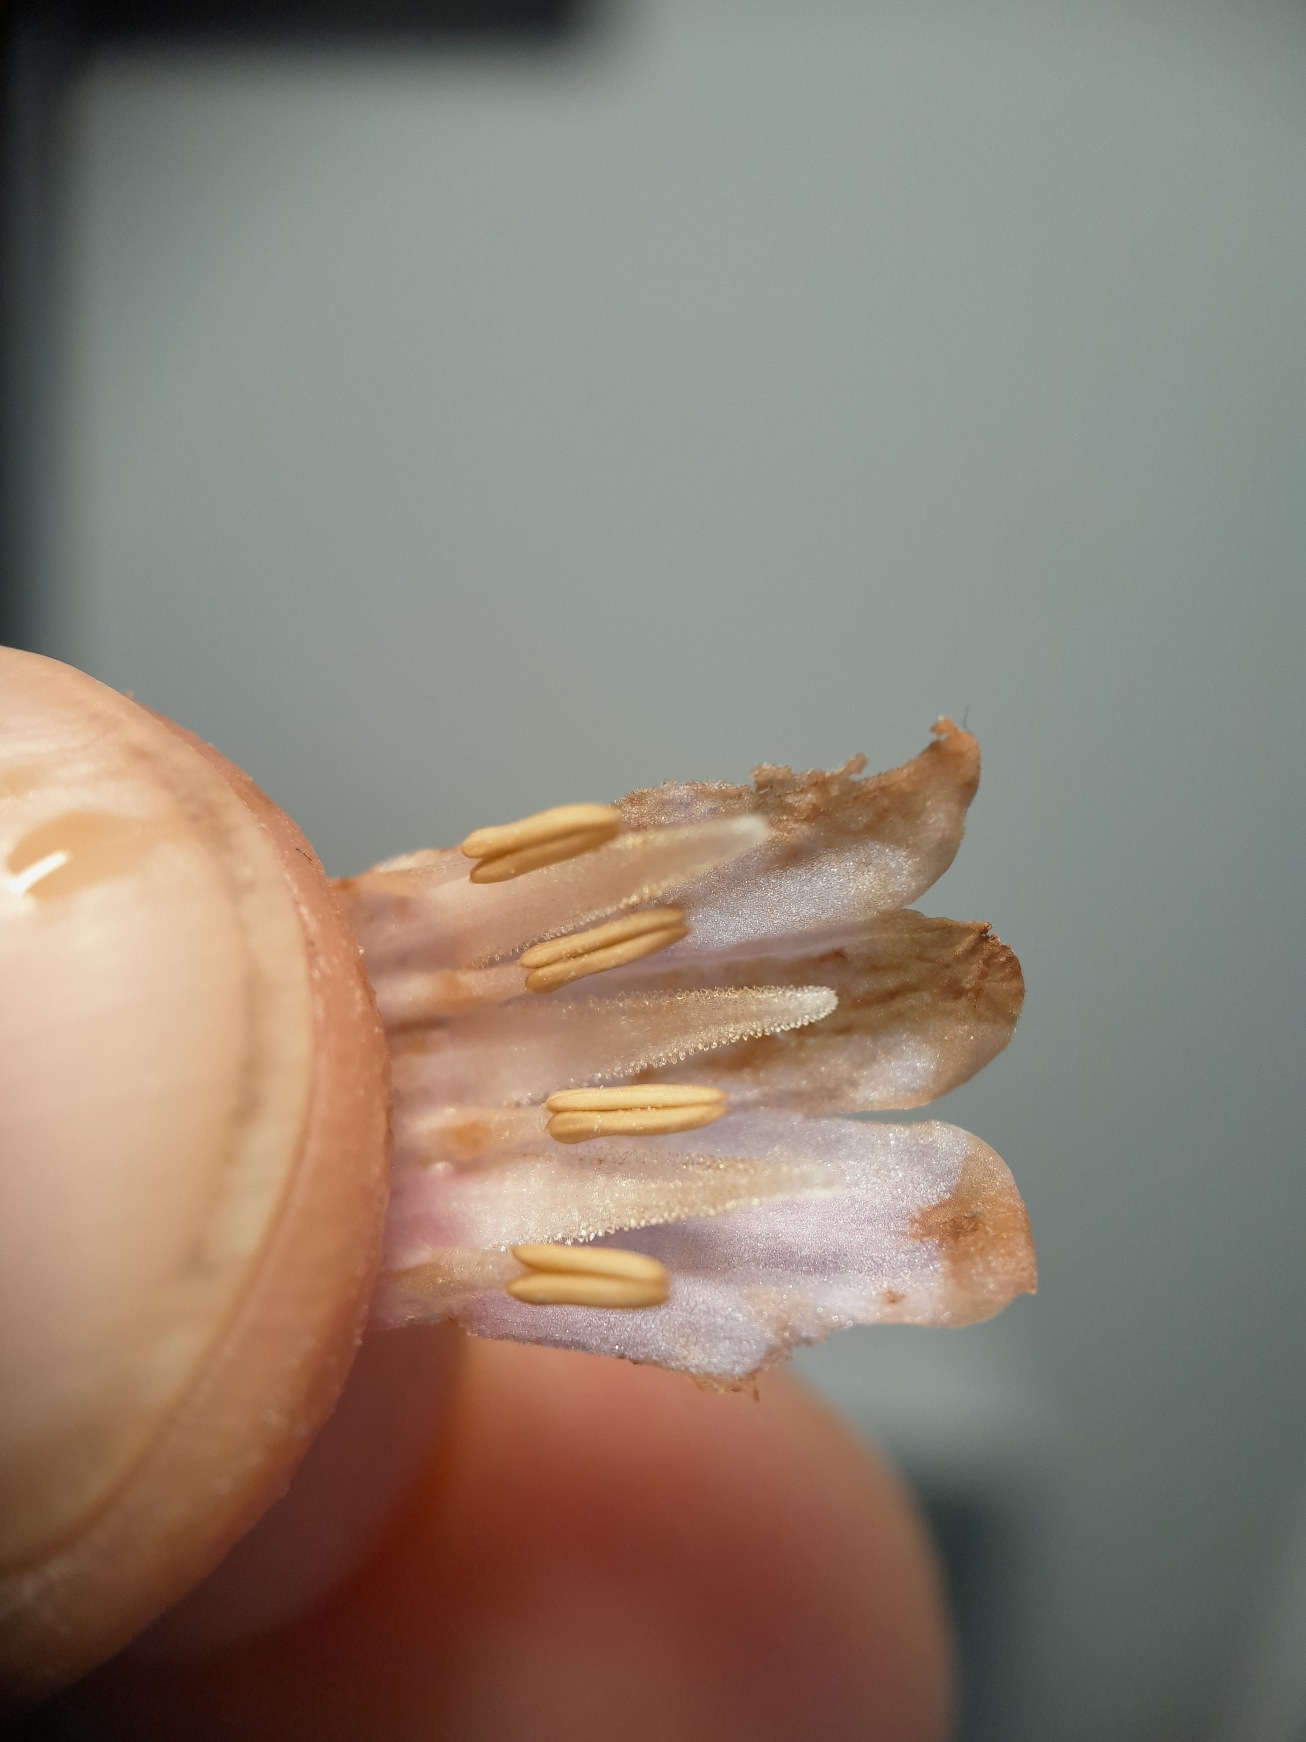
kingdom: Plantae
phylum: Tracheophyta
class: Magnoliopsida
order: Boraginales
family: Boraginaceae
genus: Symphytum
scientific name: Symphytum uplandicum
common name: Foder-kulsukker
